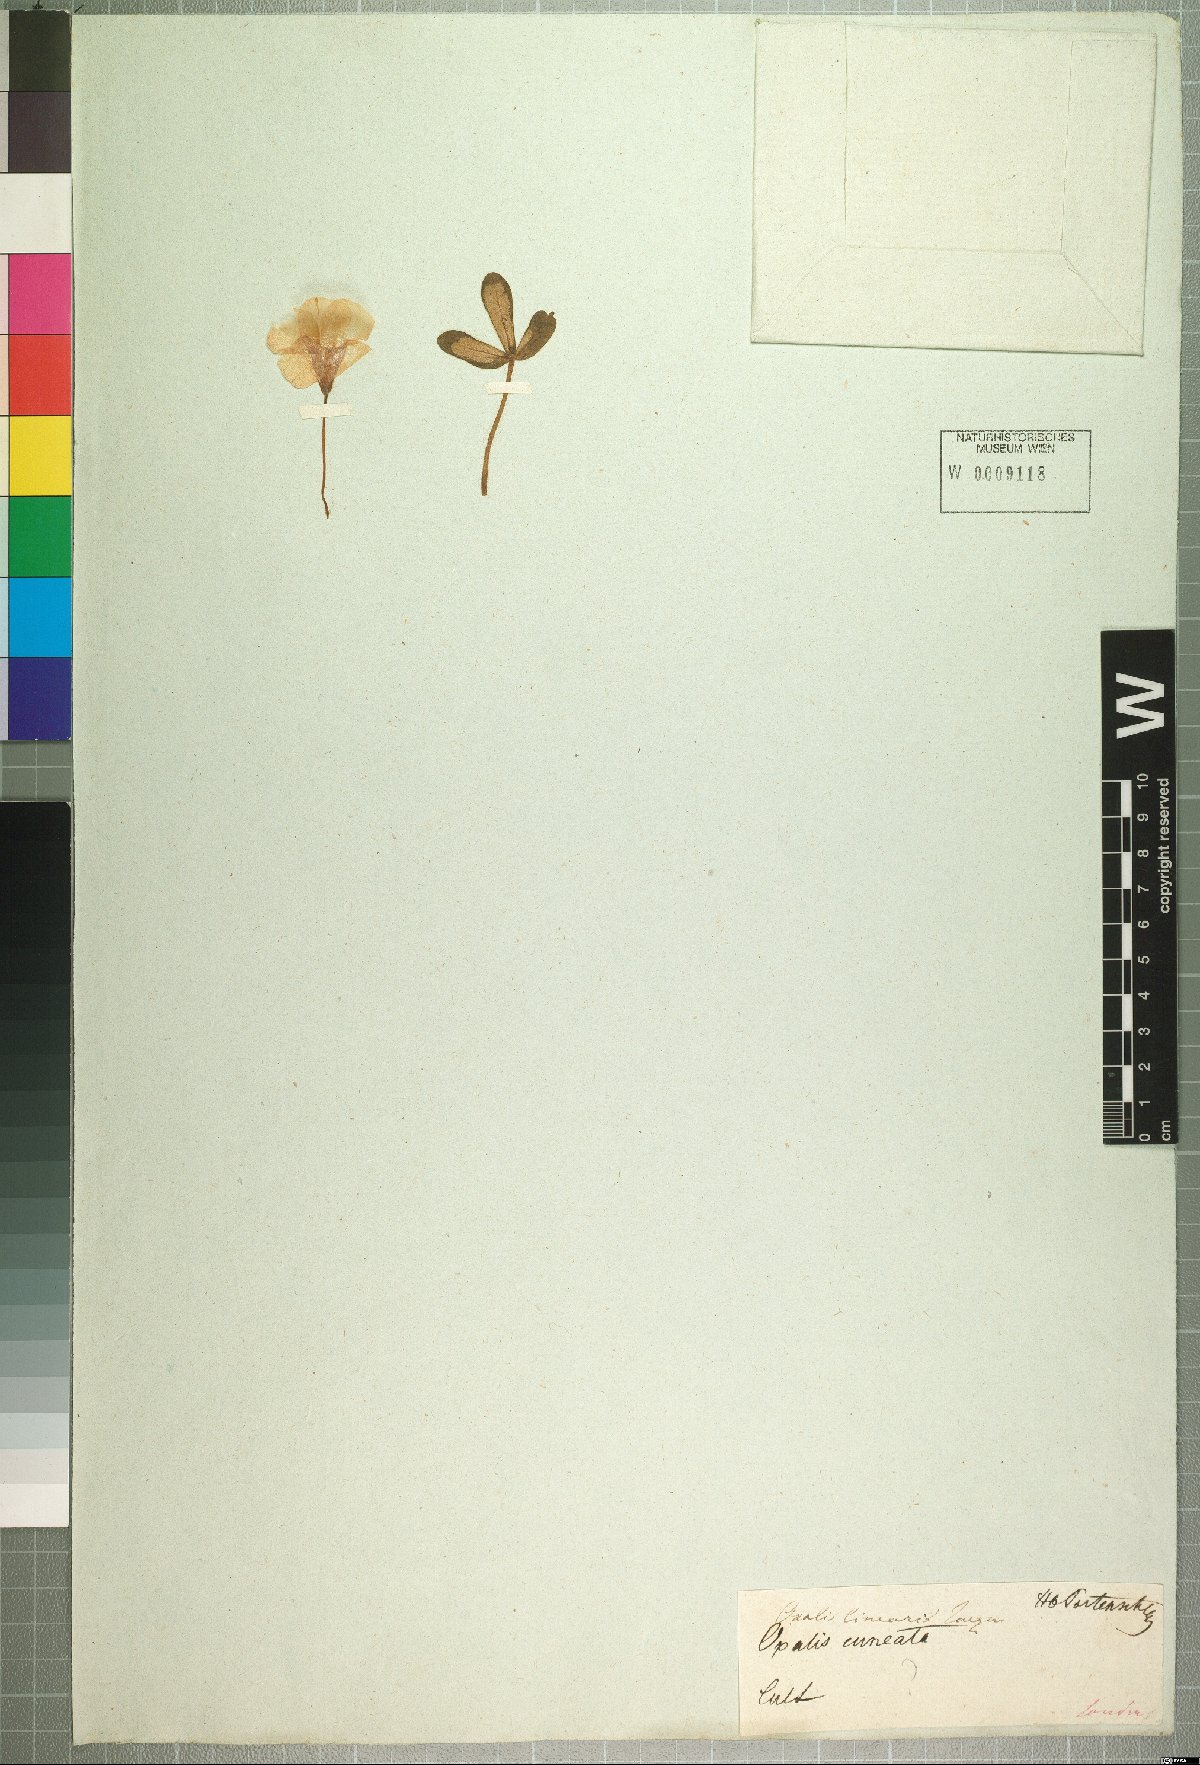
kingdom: Plantae
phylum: Tracheophyta
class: Magnoliopsida
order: Oxalidales
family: Oxalidaceae
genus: Oxalis
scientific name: Oxalis linearis
